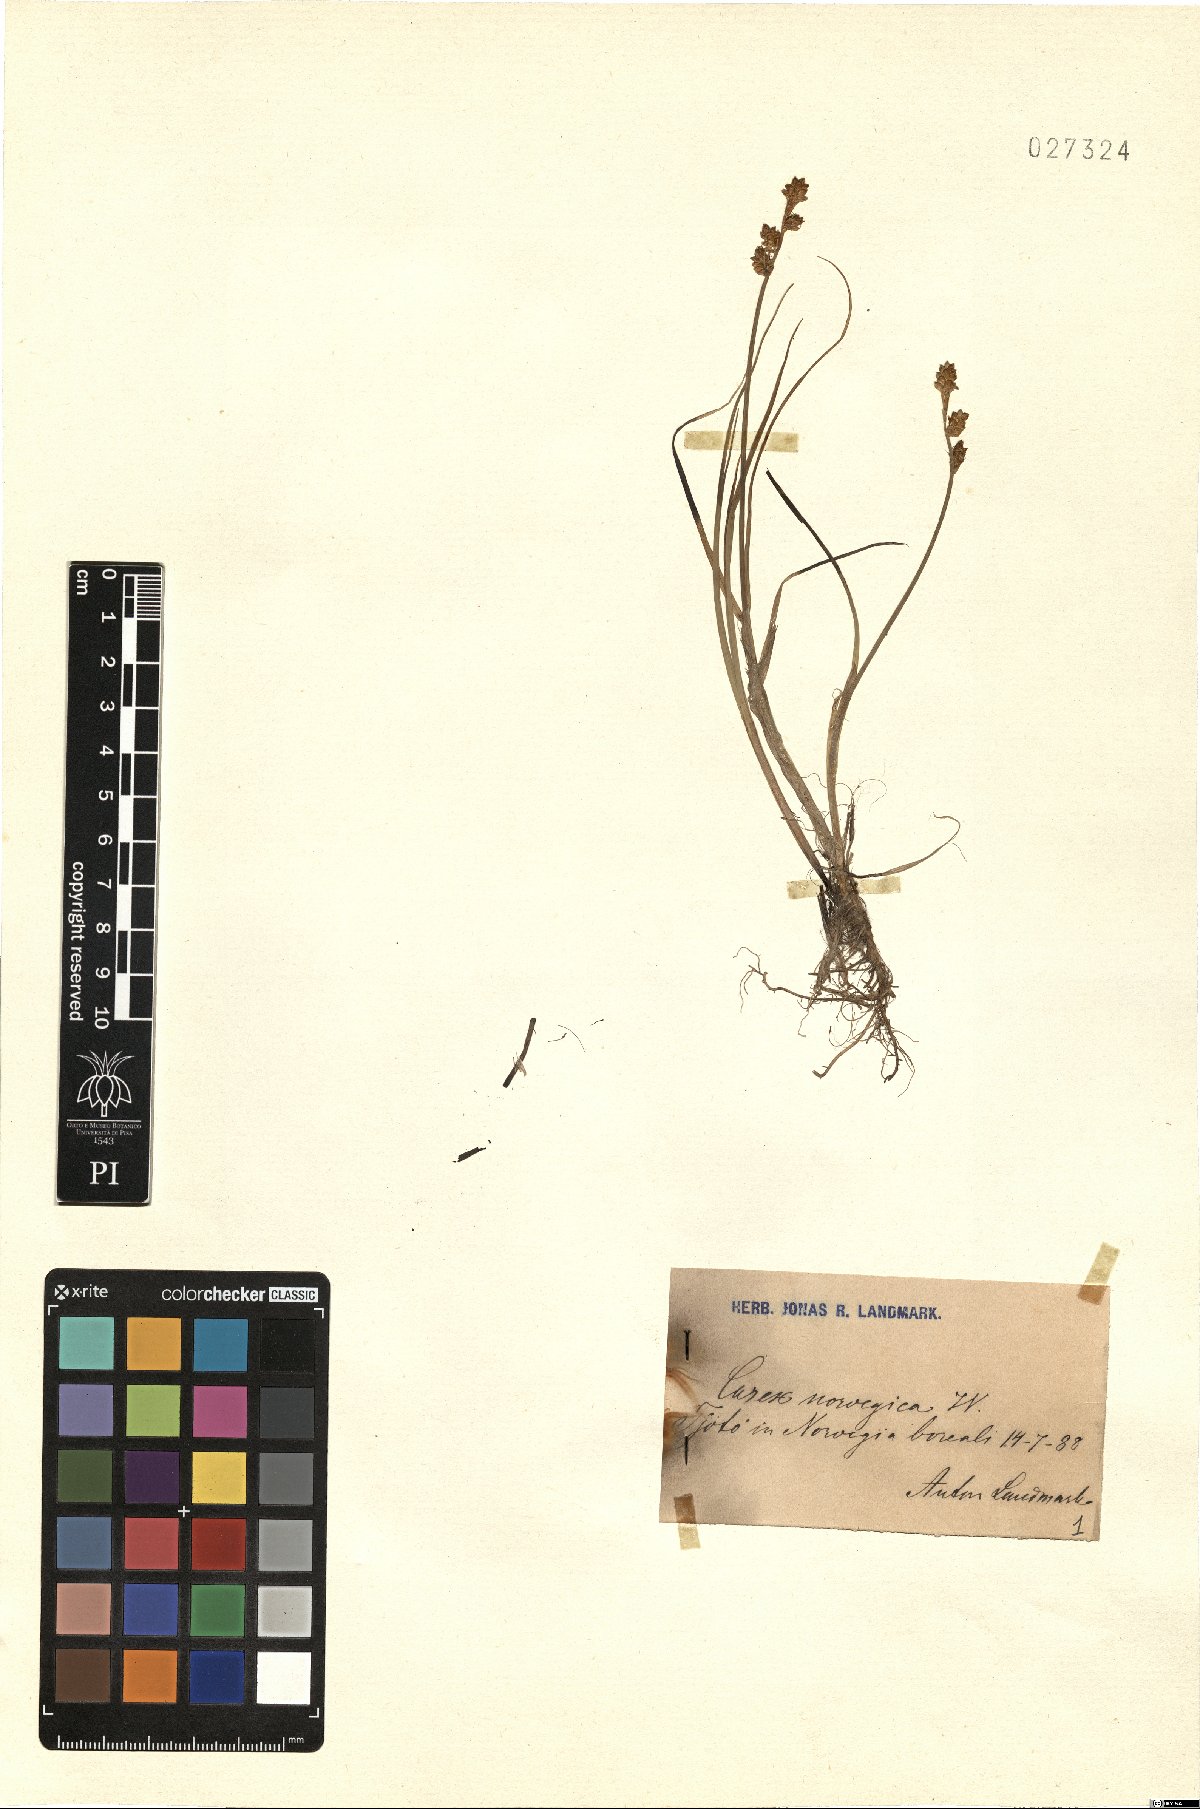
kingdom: Plantae
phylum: Tracheophyta
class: Liliopsida
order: Poales
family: Cyperaceae
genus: Carex
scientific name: Carex norvegica
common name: Close-headed alpine-sedge
